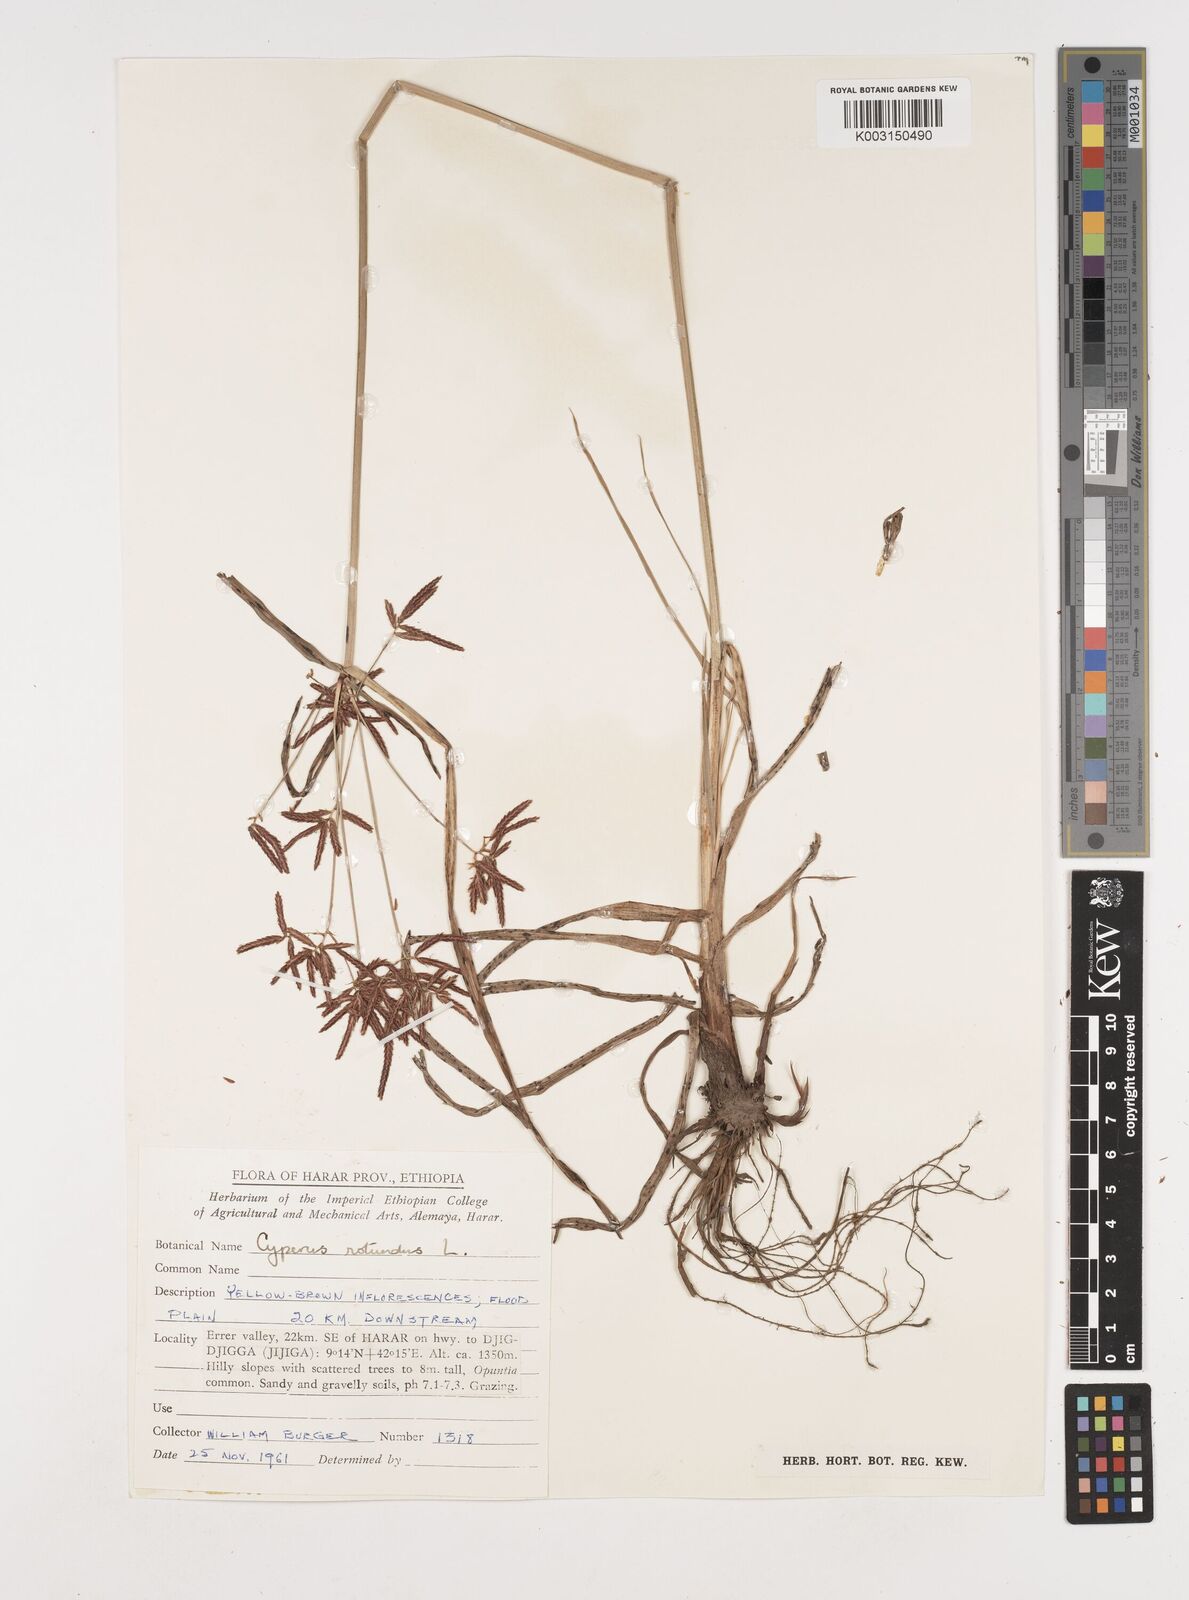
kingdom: Plantae
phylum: Tracheophyta
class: Liliopsida
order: Poales
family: Cyperaceae
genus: Cyperus
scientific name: Cyperus rotundus
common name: Nutgrass
